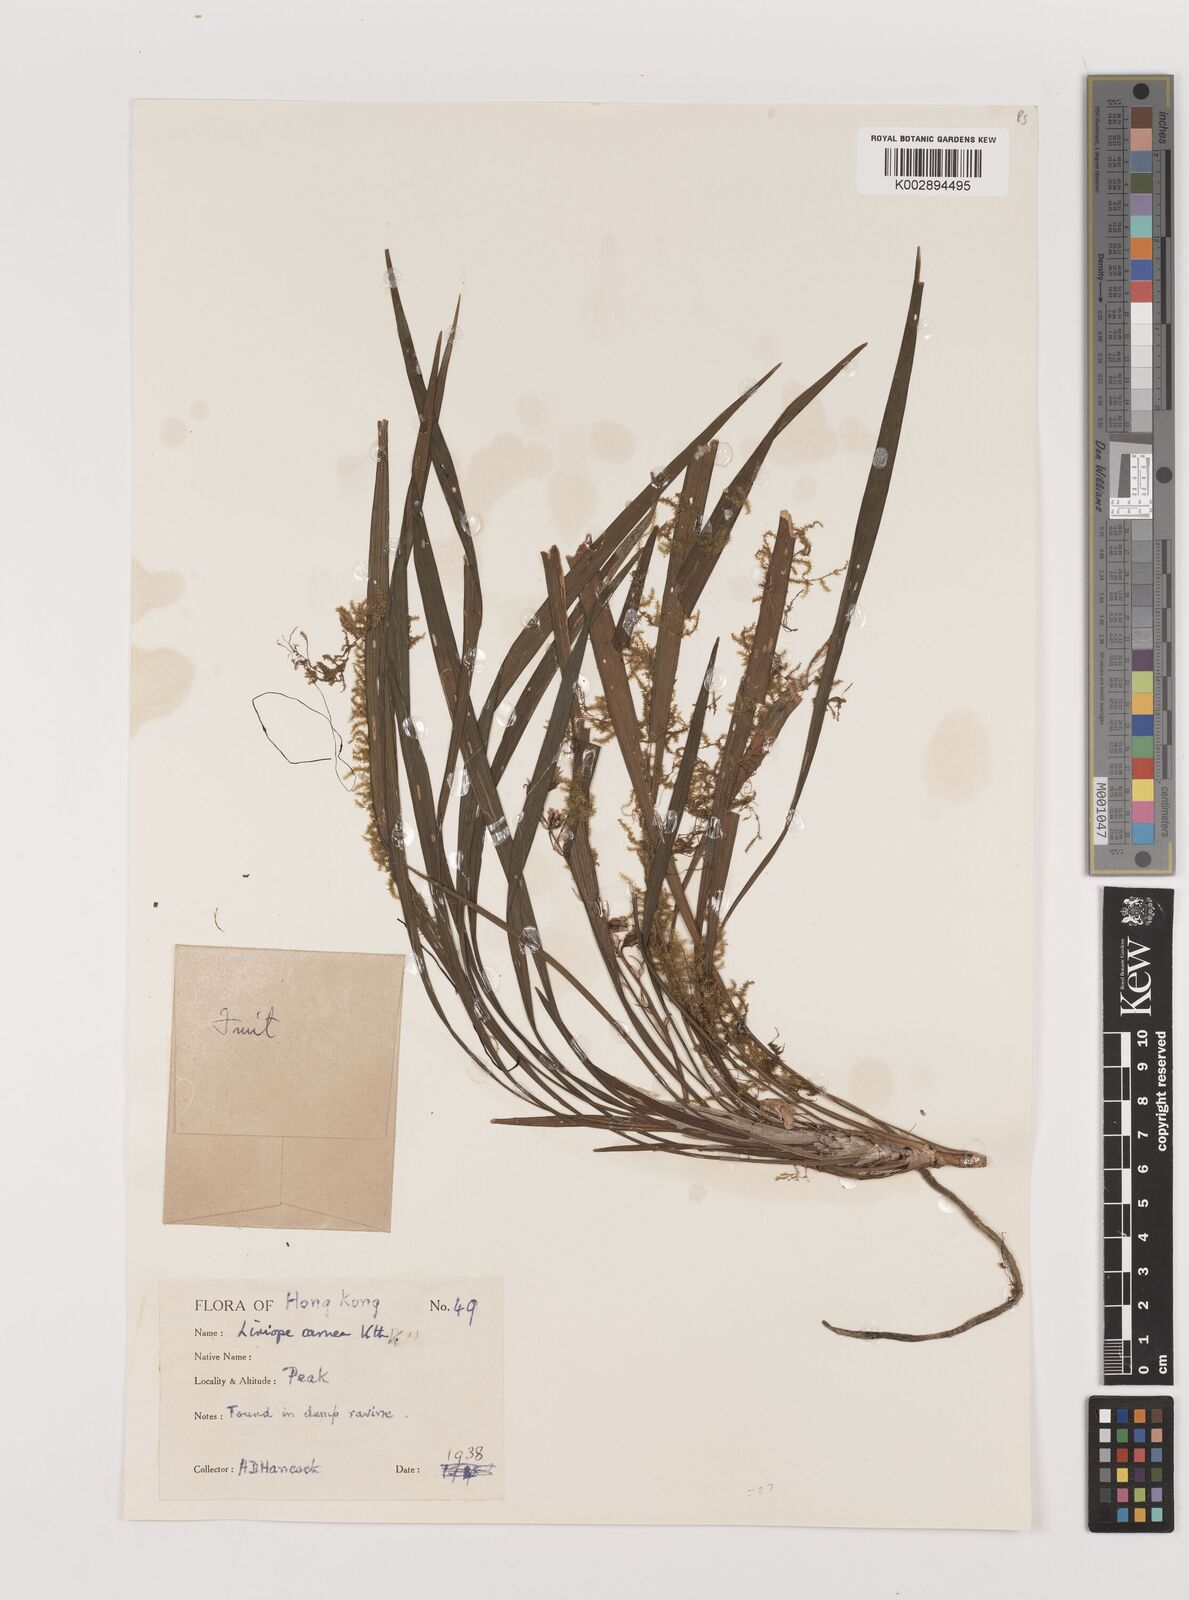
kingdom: Plantae
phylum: Tracheophyta
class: Liliopsida
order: Asparagales
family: Asparagaceae
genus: Liriope
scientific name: Liriope
